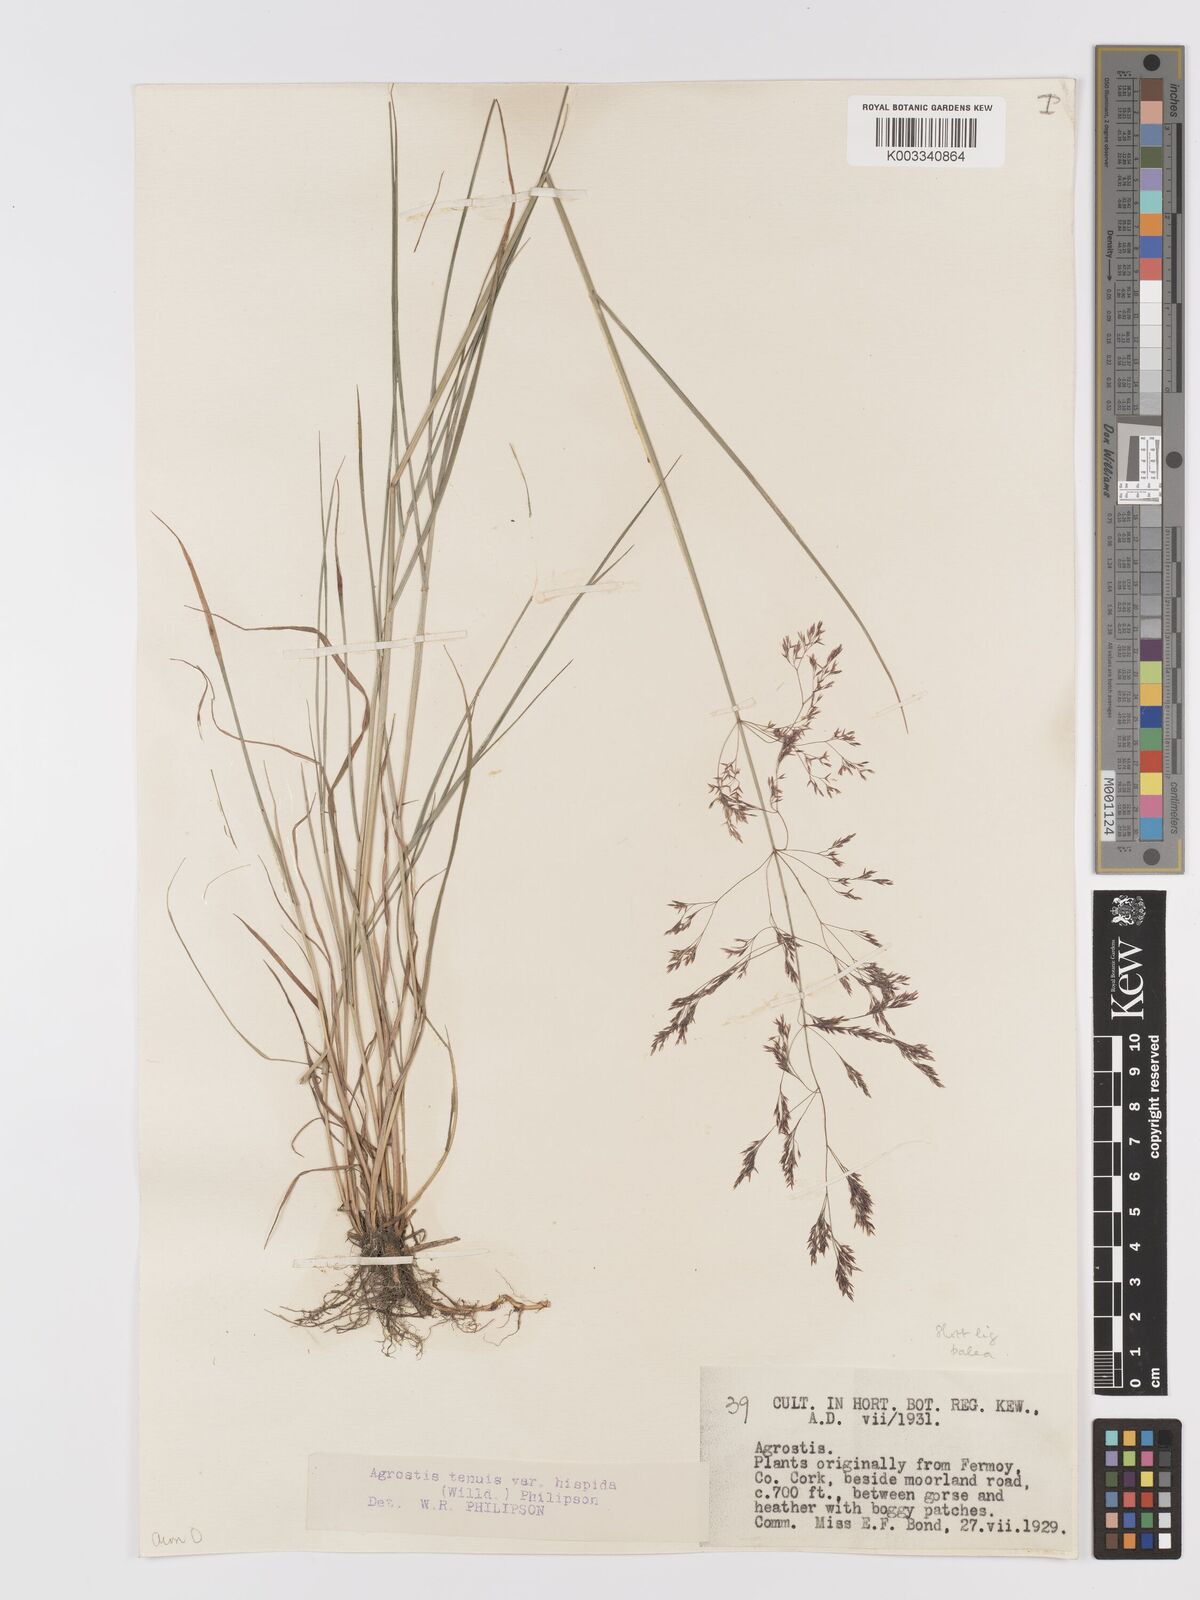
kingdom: Plantae
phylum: Tracheophyta
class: Liliopsida
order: Poales
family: Poaceae
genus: Agrostis
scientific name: Agrostis capillaris
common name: Colonial bentgrass
